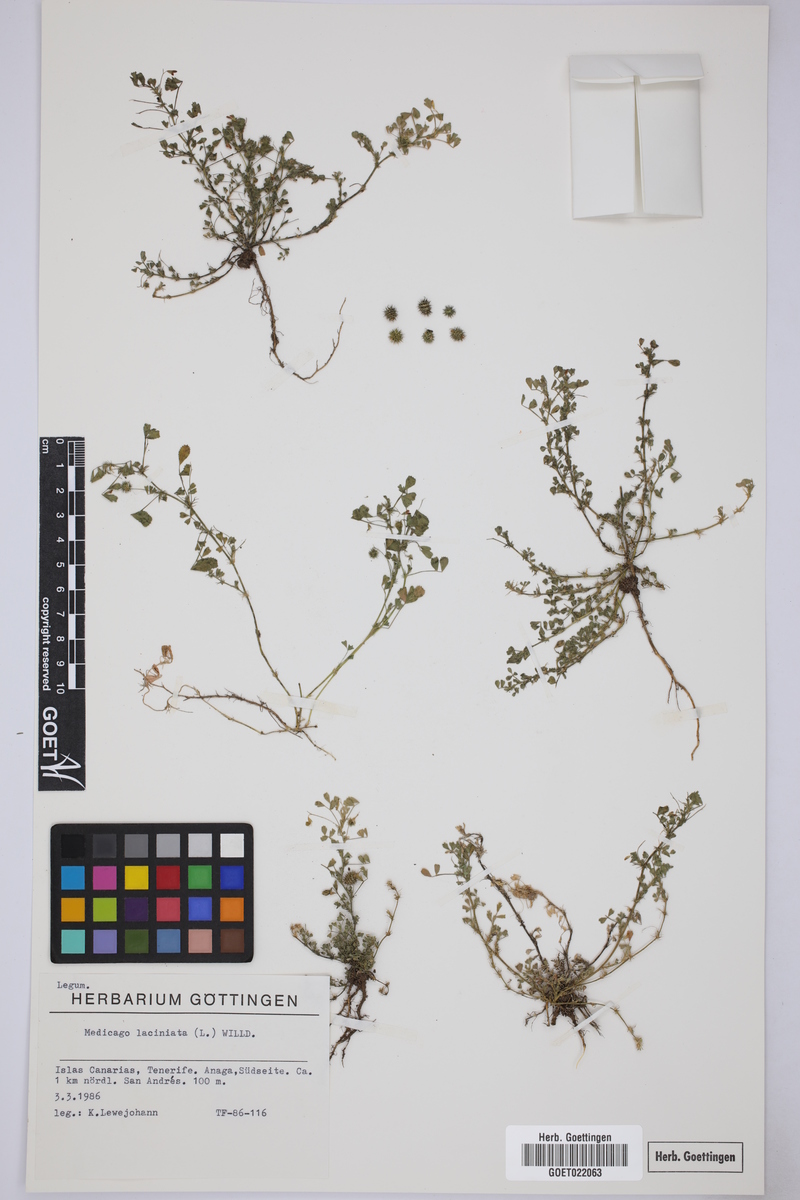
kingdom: Plantae
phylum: Tracheophyta
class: Magnoliopsida
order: Fabales
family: Fabaceae
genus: Medicago
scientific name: Medicago laciniata
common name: Tattered medick
